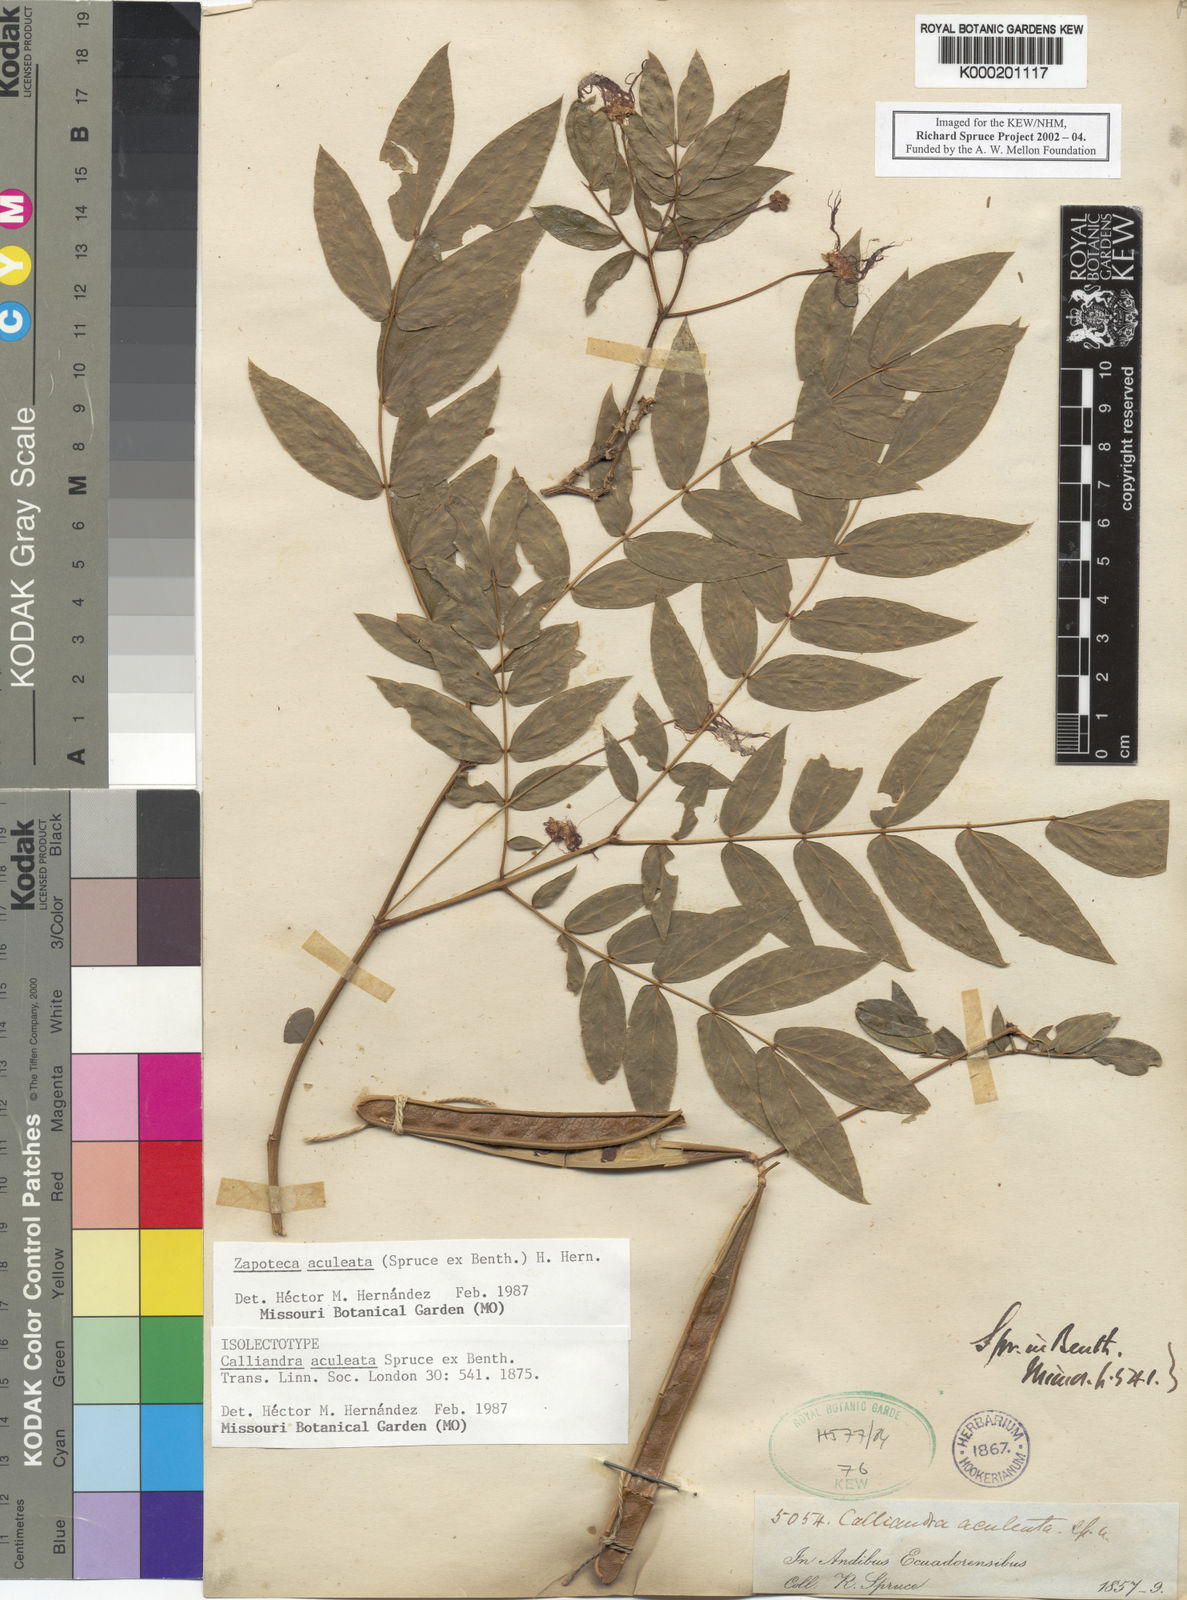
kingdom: Plantae
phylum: Tracheophyta
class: Magnoliopsida
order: Fabales
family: Fabaceae
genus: Zapoteca
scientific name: Zapoteca aculeata
